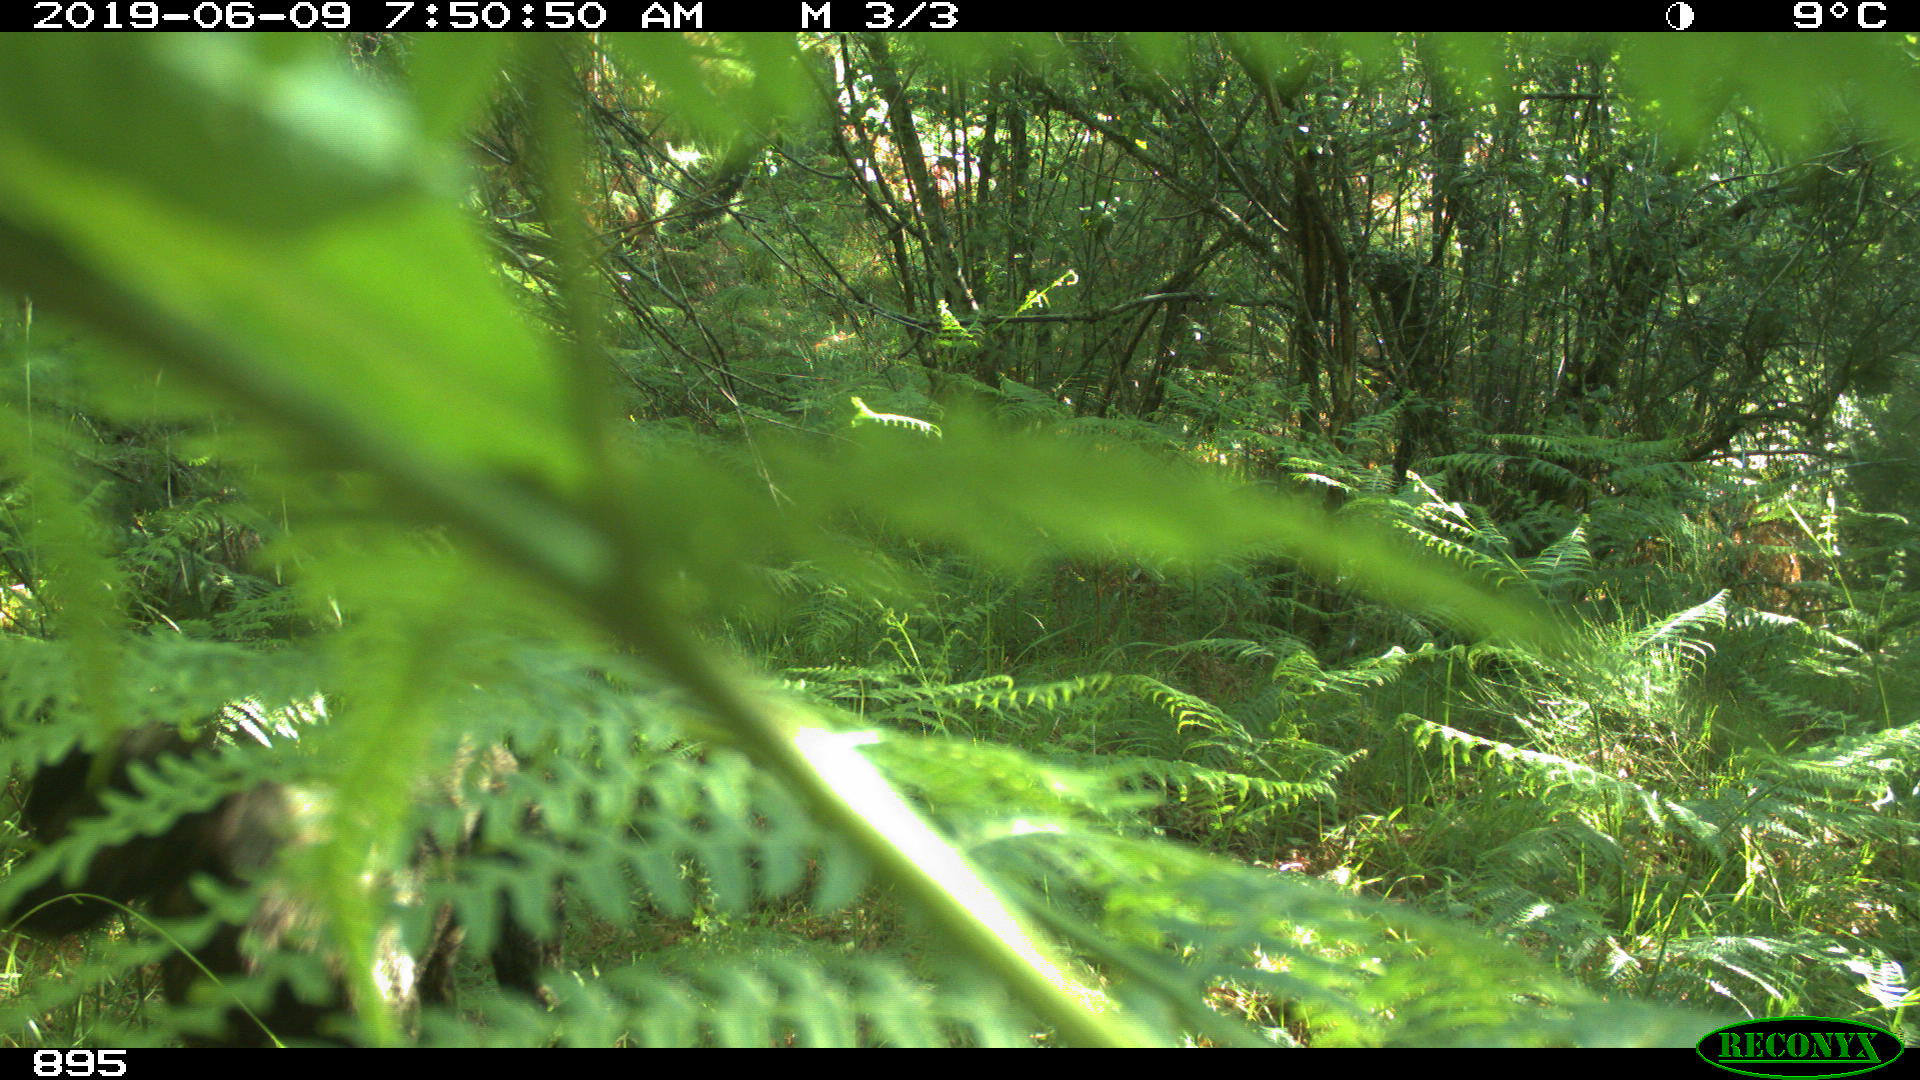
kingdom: Animalia
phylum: Chordata
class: Mammalia
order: Carnivora
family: Canidae
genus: Canis
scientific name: Canis lupus
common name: Gray wolf
